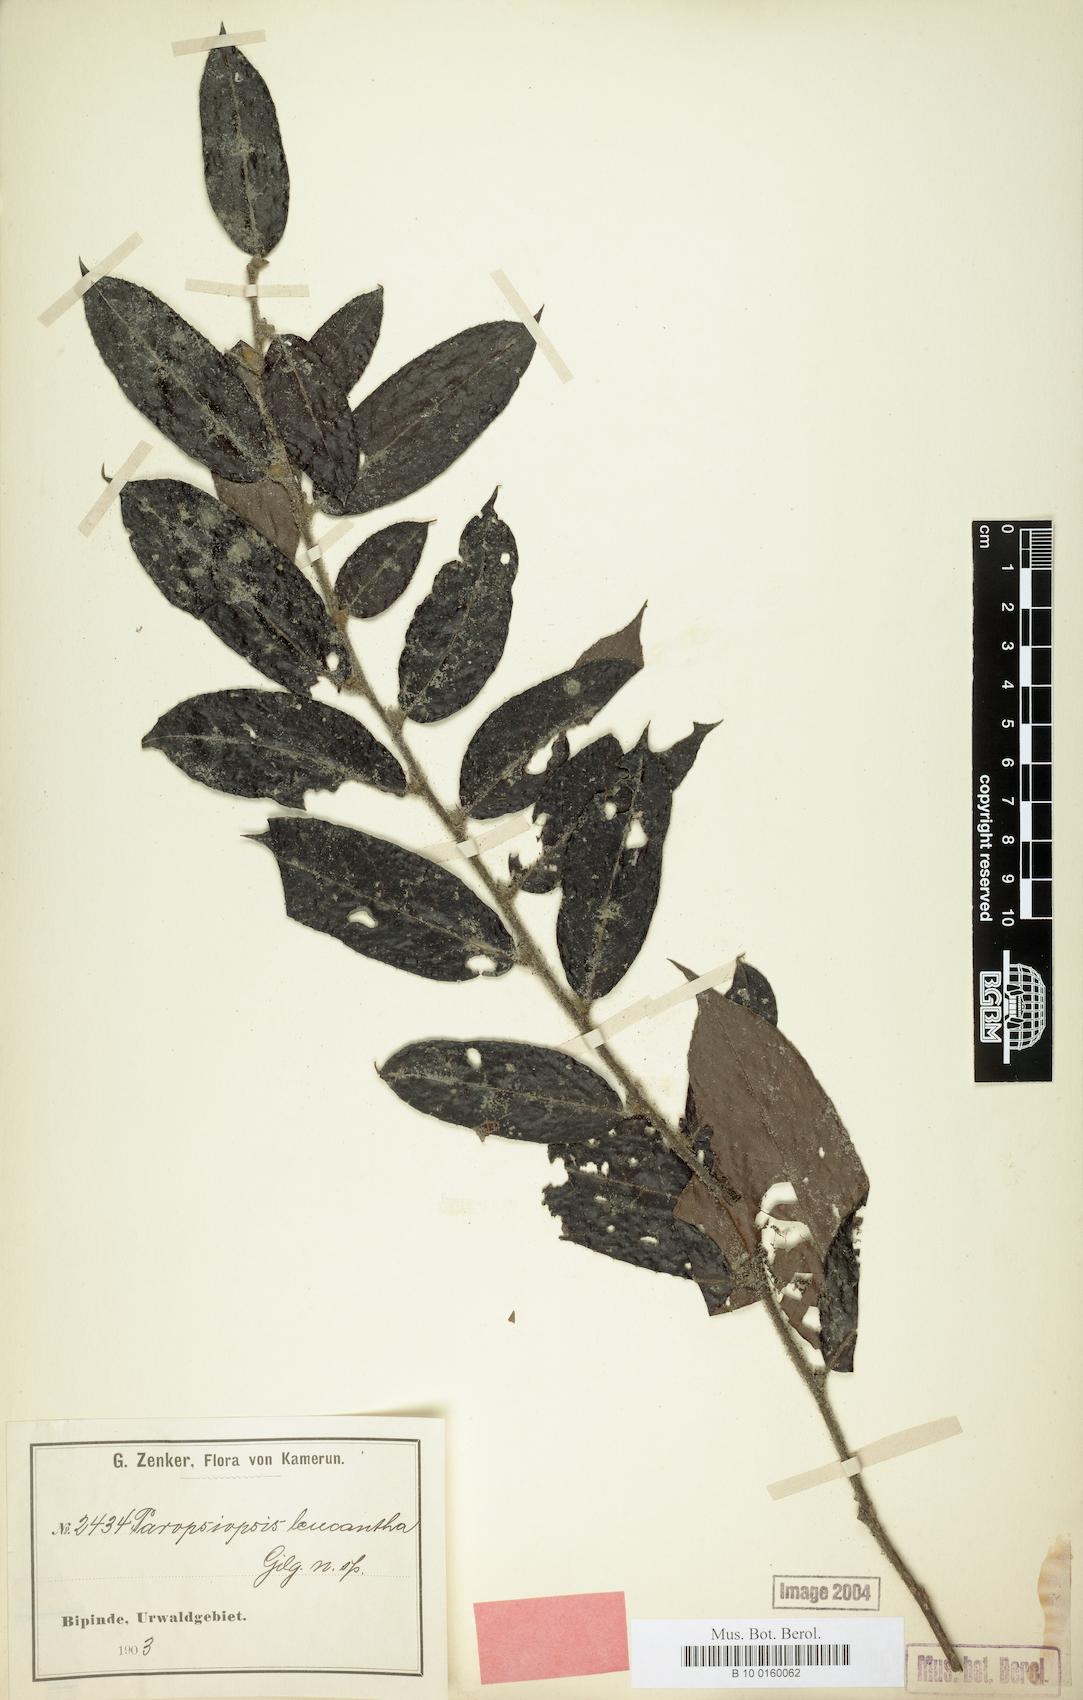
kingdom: Plantae
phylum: Tracheophyta
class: Magnoliopsida
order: Malpighiales
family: Passifloraceae
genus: Paropsiopsis
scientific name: Paropsiopsis decandra
